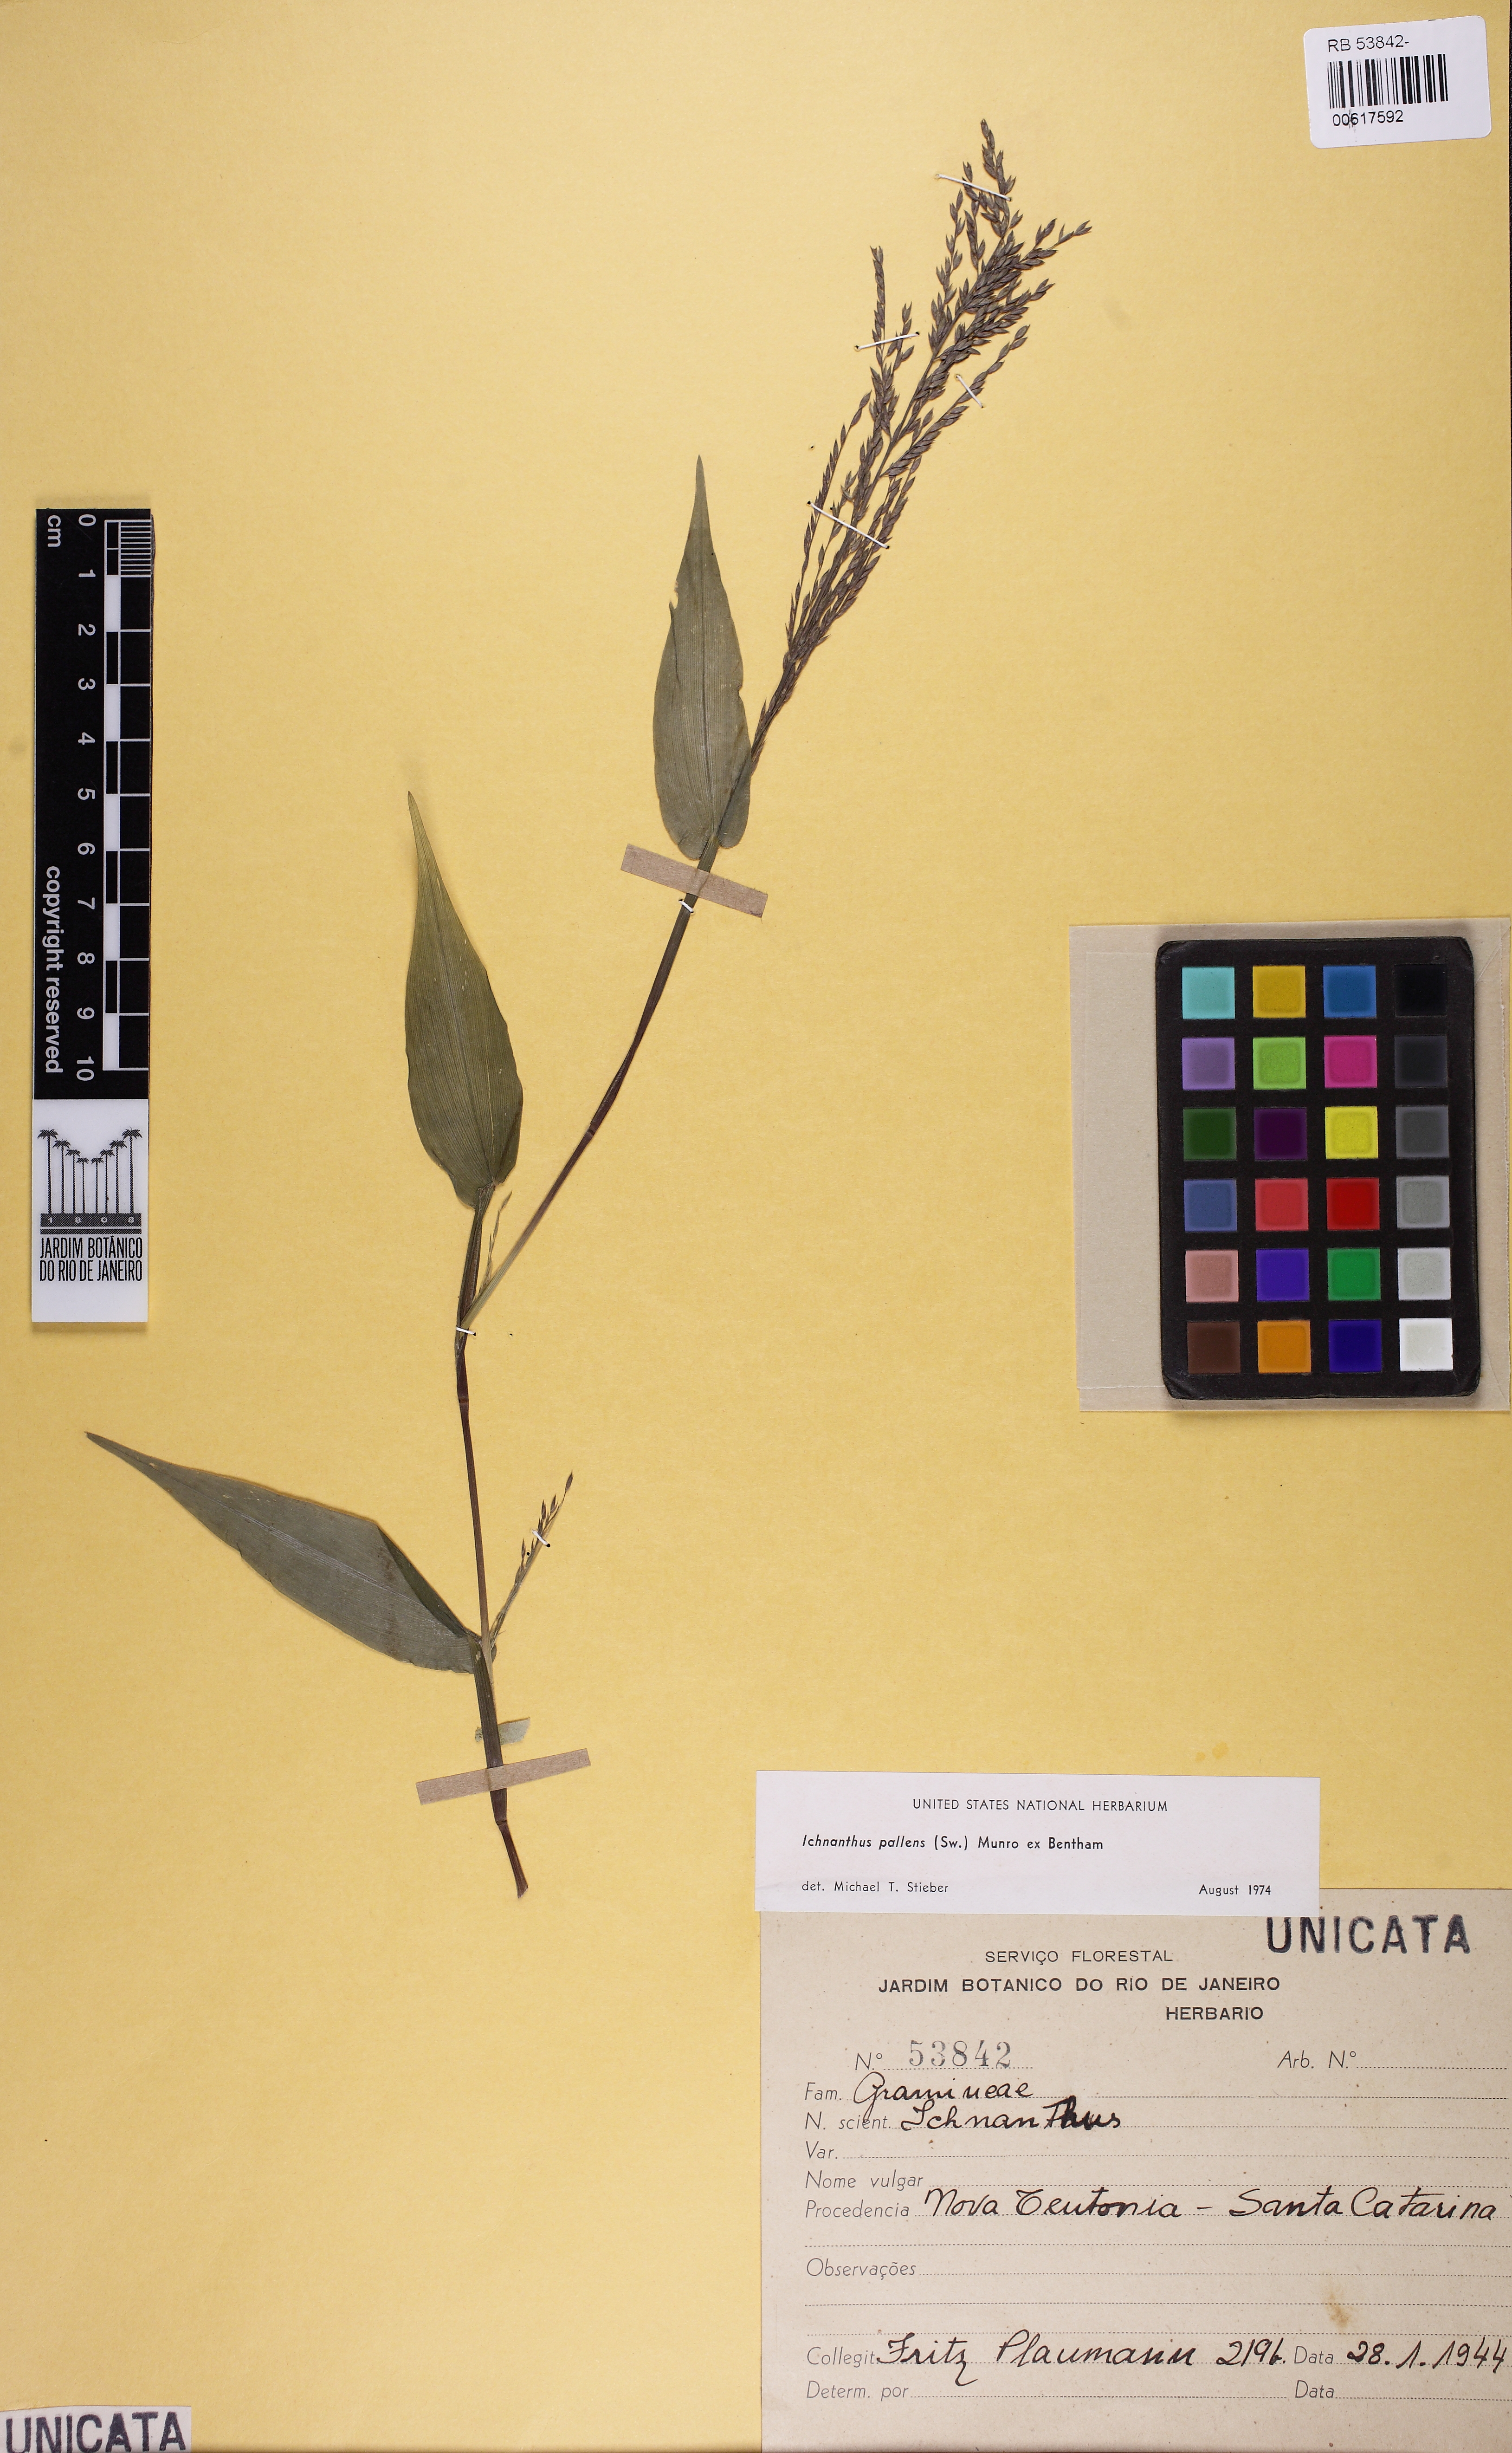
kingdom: Plantae
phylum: Tracheophyta
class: Liliopsida
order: Poales
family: Poaceae
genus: Ichnanthus
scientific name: Ichnanthus pallens
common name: Water grass
